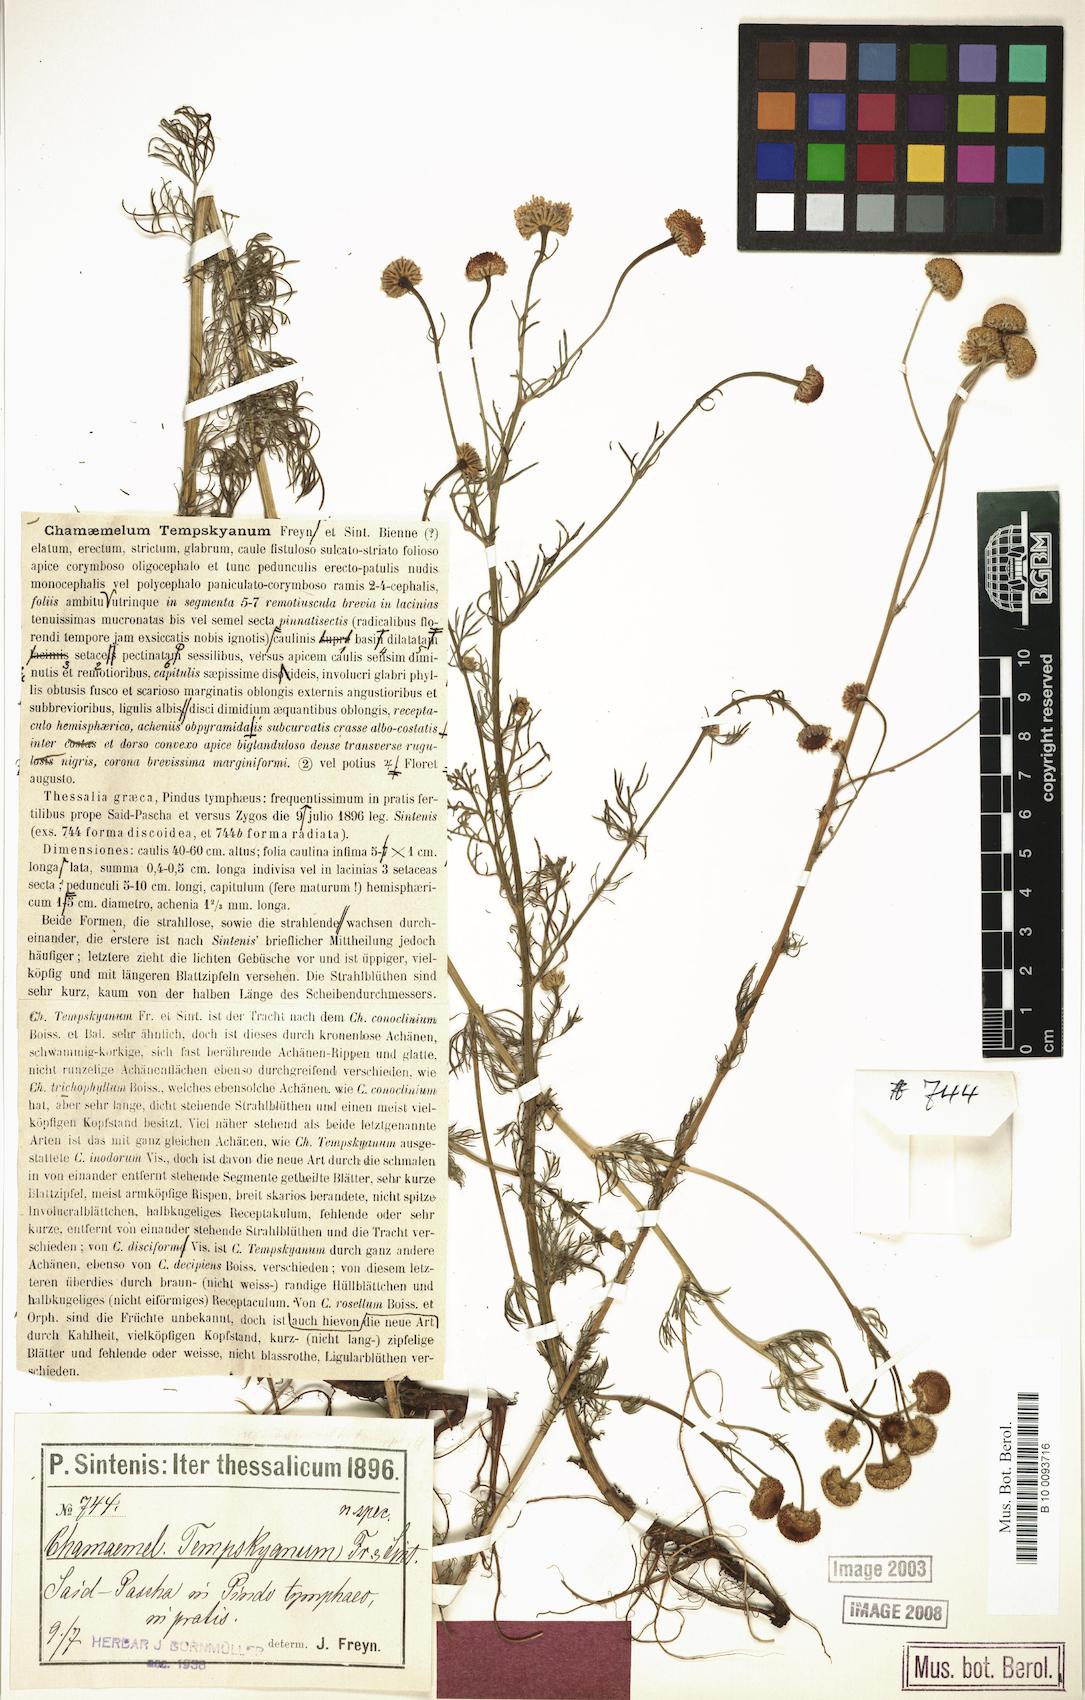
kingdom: Plantae
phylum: Tracheophyta
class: Magnoliopsida
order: Asterales
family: Asteraceae
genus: Tripleurospermum
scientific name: Tripleurospermum tempskyanum
